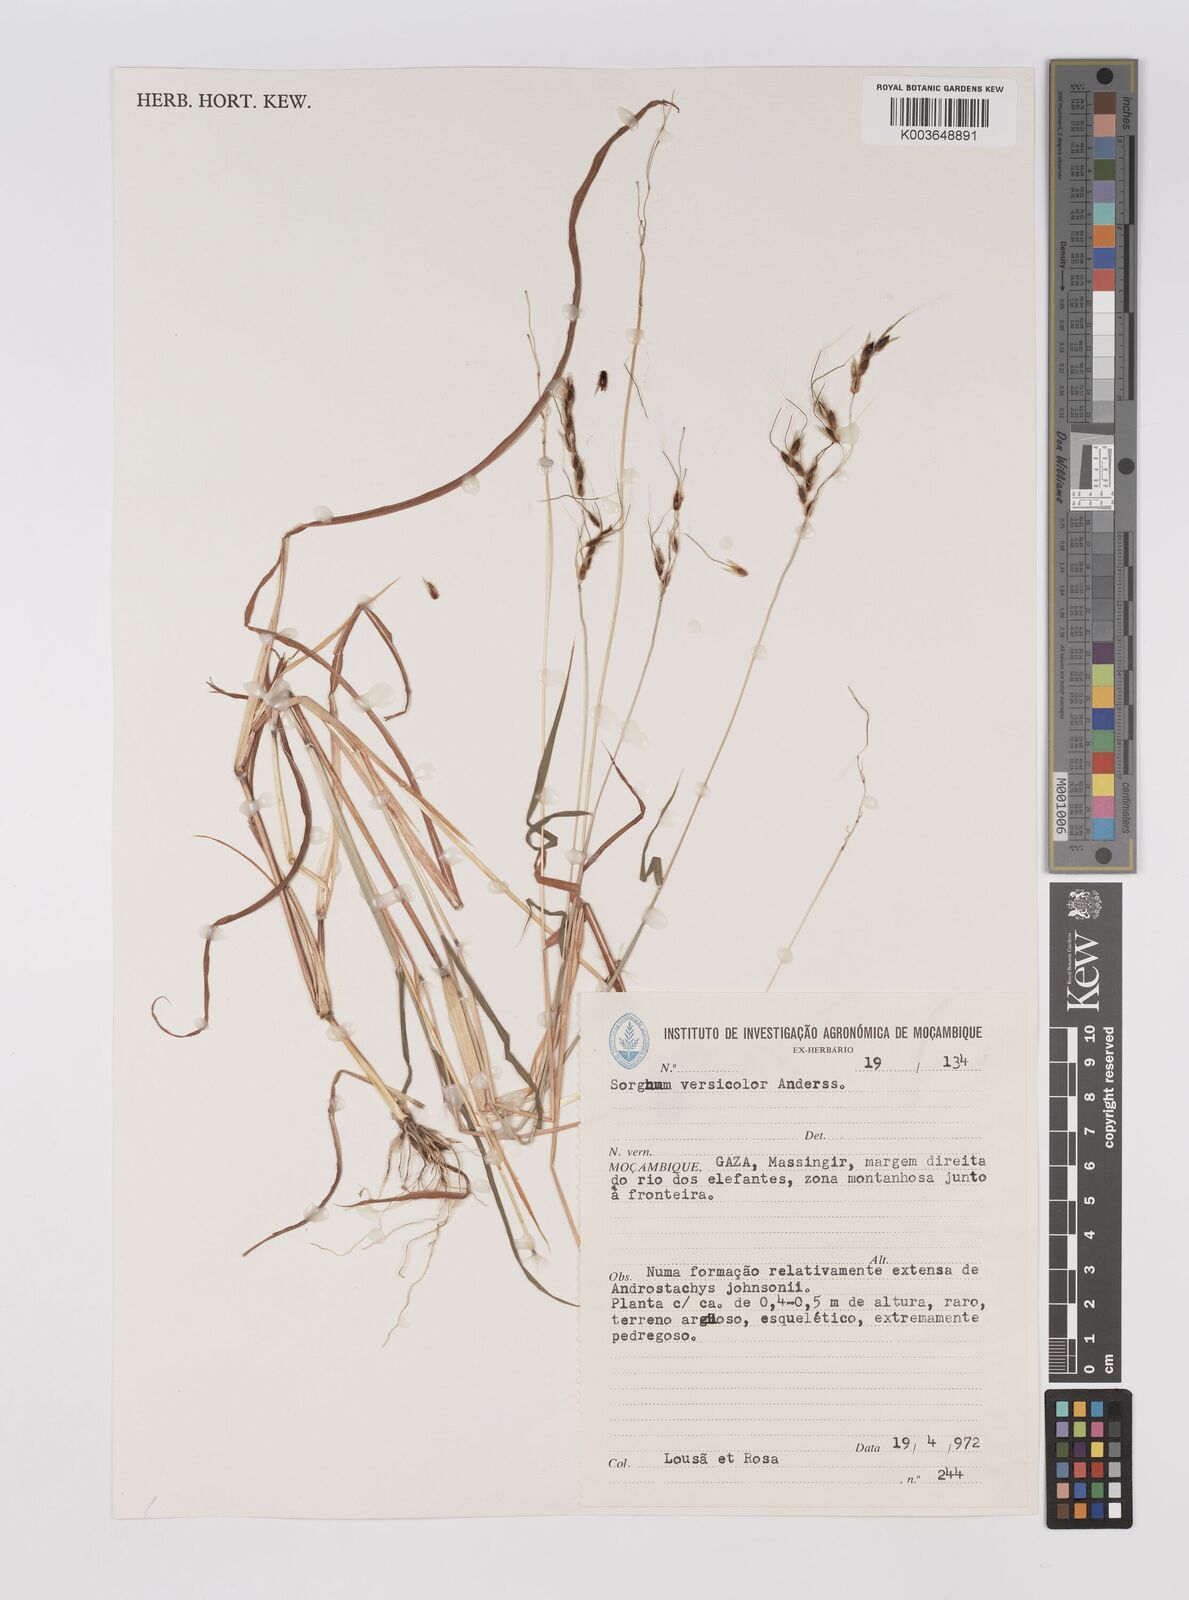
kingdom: Plantae
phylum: Tracheophyta
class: Liliopsida
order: Poales
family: Poaceae
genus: Sarga
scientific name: Sarga versicolor
